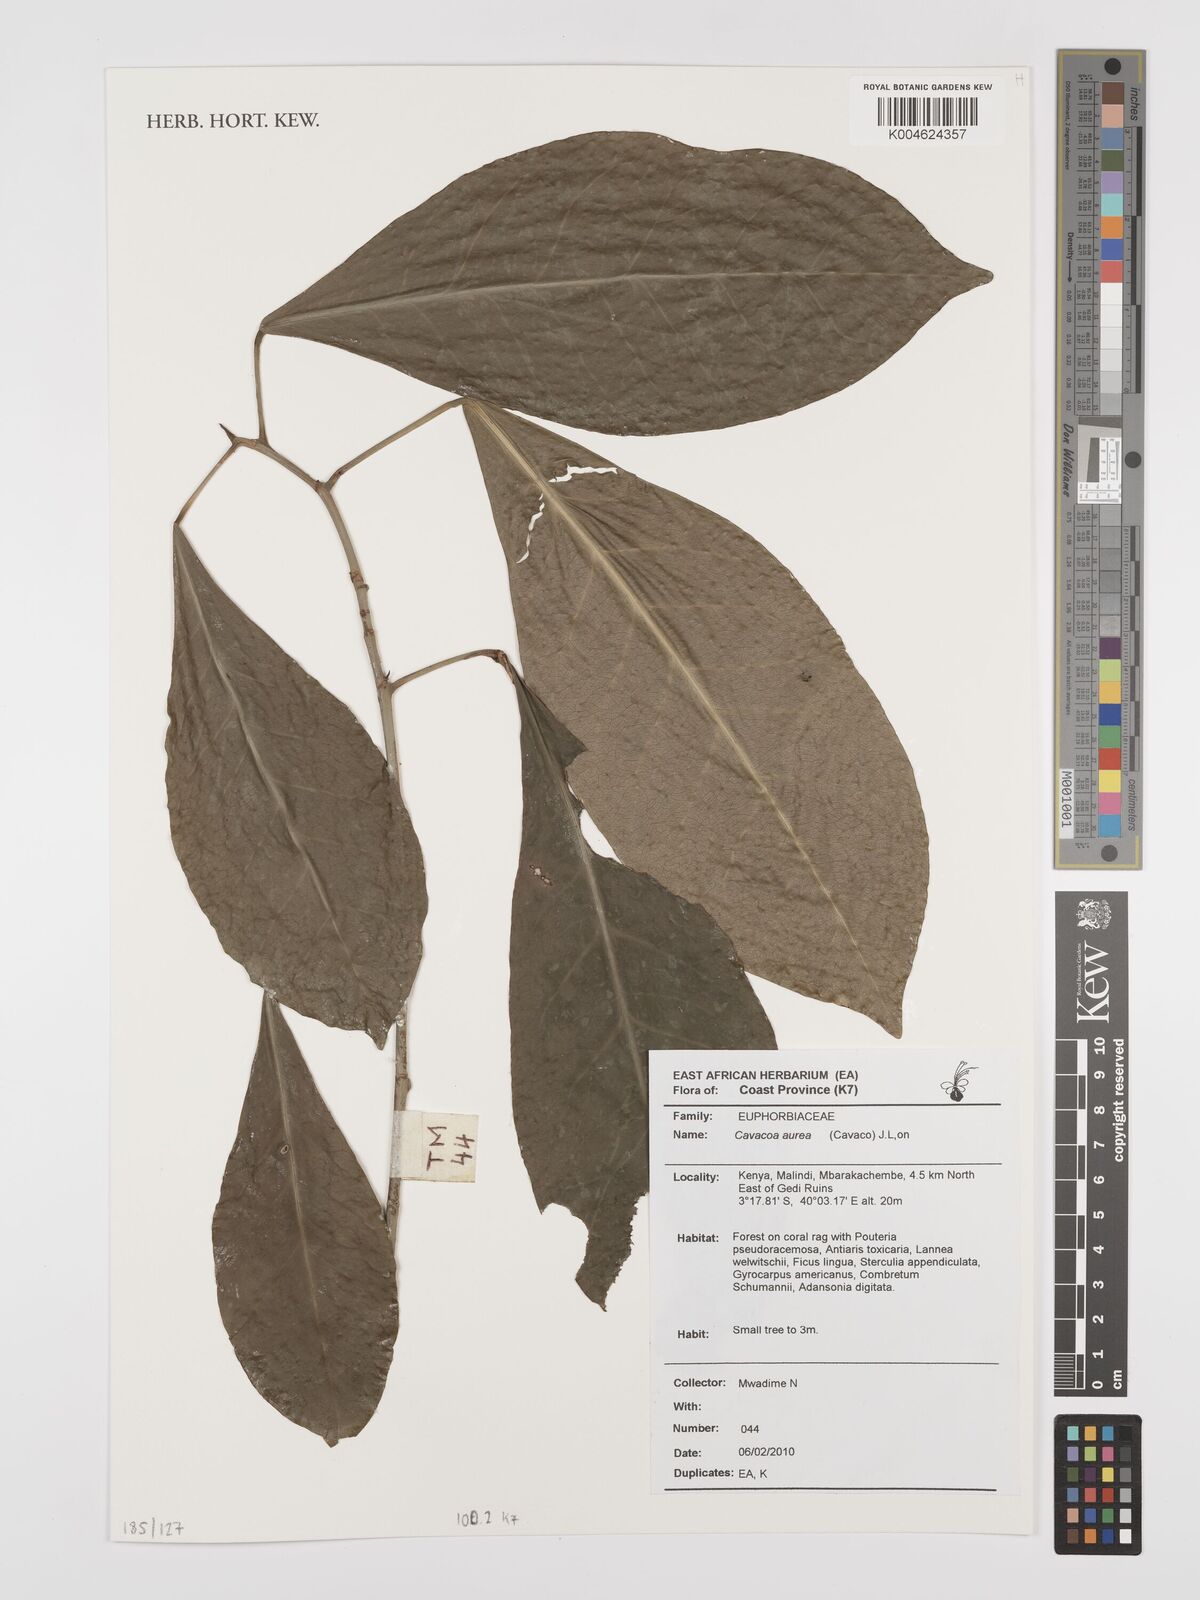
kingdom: Plantae
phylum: Tracheophyta
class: Magnoliopsida
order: Malpighiales
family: Euphorbiaceae
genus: Cavacoa
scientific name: Cavacoa aurea
